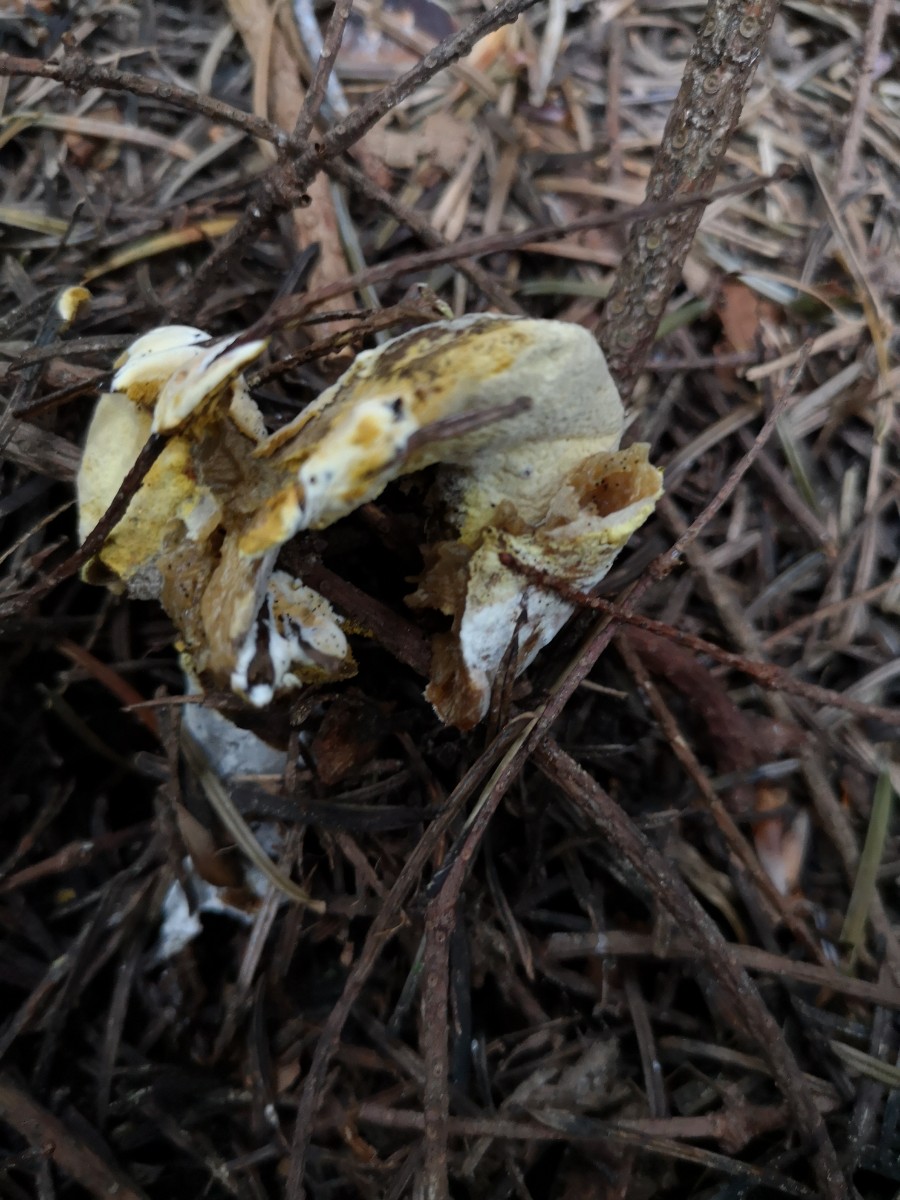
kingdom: Fungi
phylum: Ascomycota
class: Sordariomycetes
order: Hypocreales
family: Hypocreaceae
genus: Hypomyces
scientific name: Hypomyces microspermus
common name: dværgrørhat-snylteskorpe
